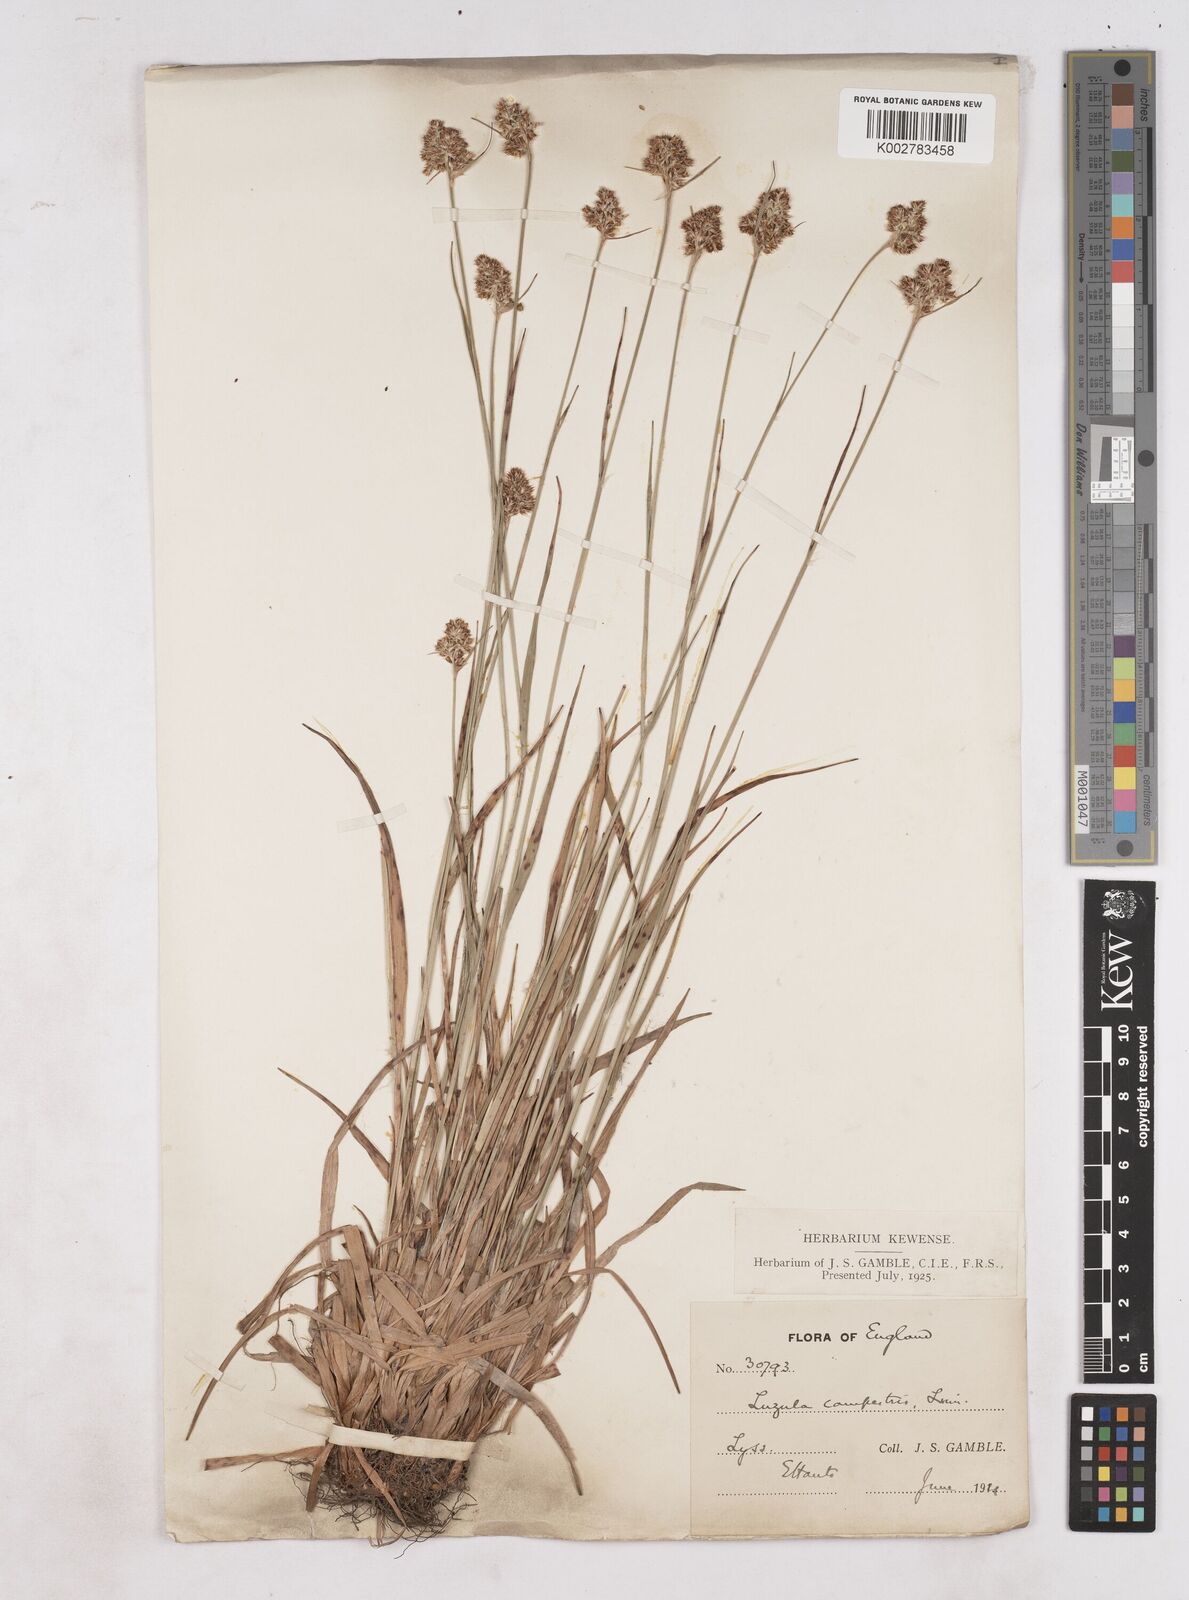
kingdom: Plantae
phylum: Tracheophyta
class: Liliopsida
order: Poales
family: Juncaceae
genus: Luzula
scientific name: Luzula campestris
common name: Field wood-rush
